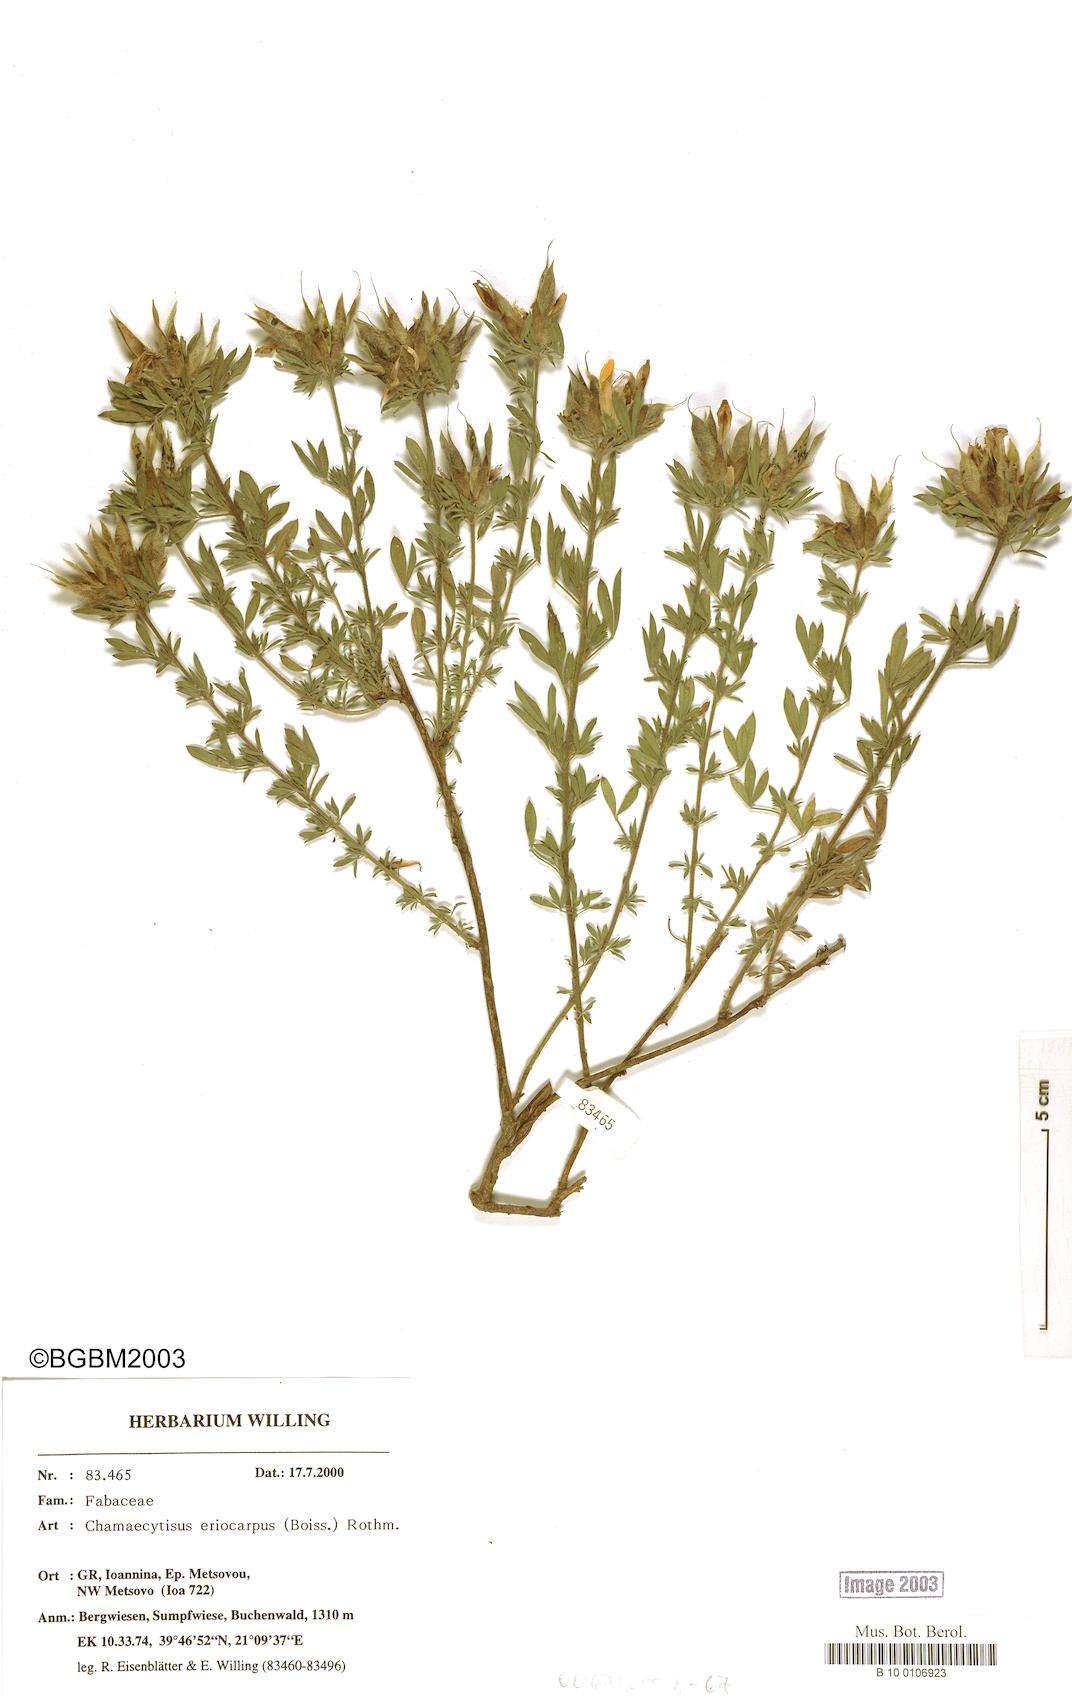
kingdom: Plantae
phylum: Tracheophyta
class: Magnoliopsida
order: Fabales
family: Fabaceae
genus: Chamaecytisus
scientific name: Chamaecytisus eriocarpus
